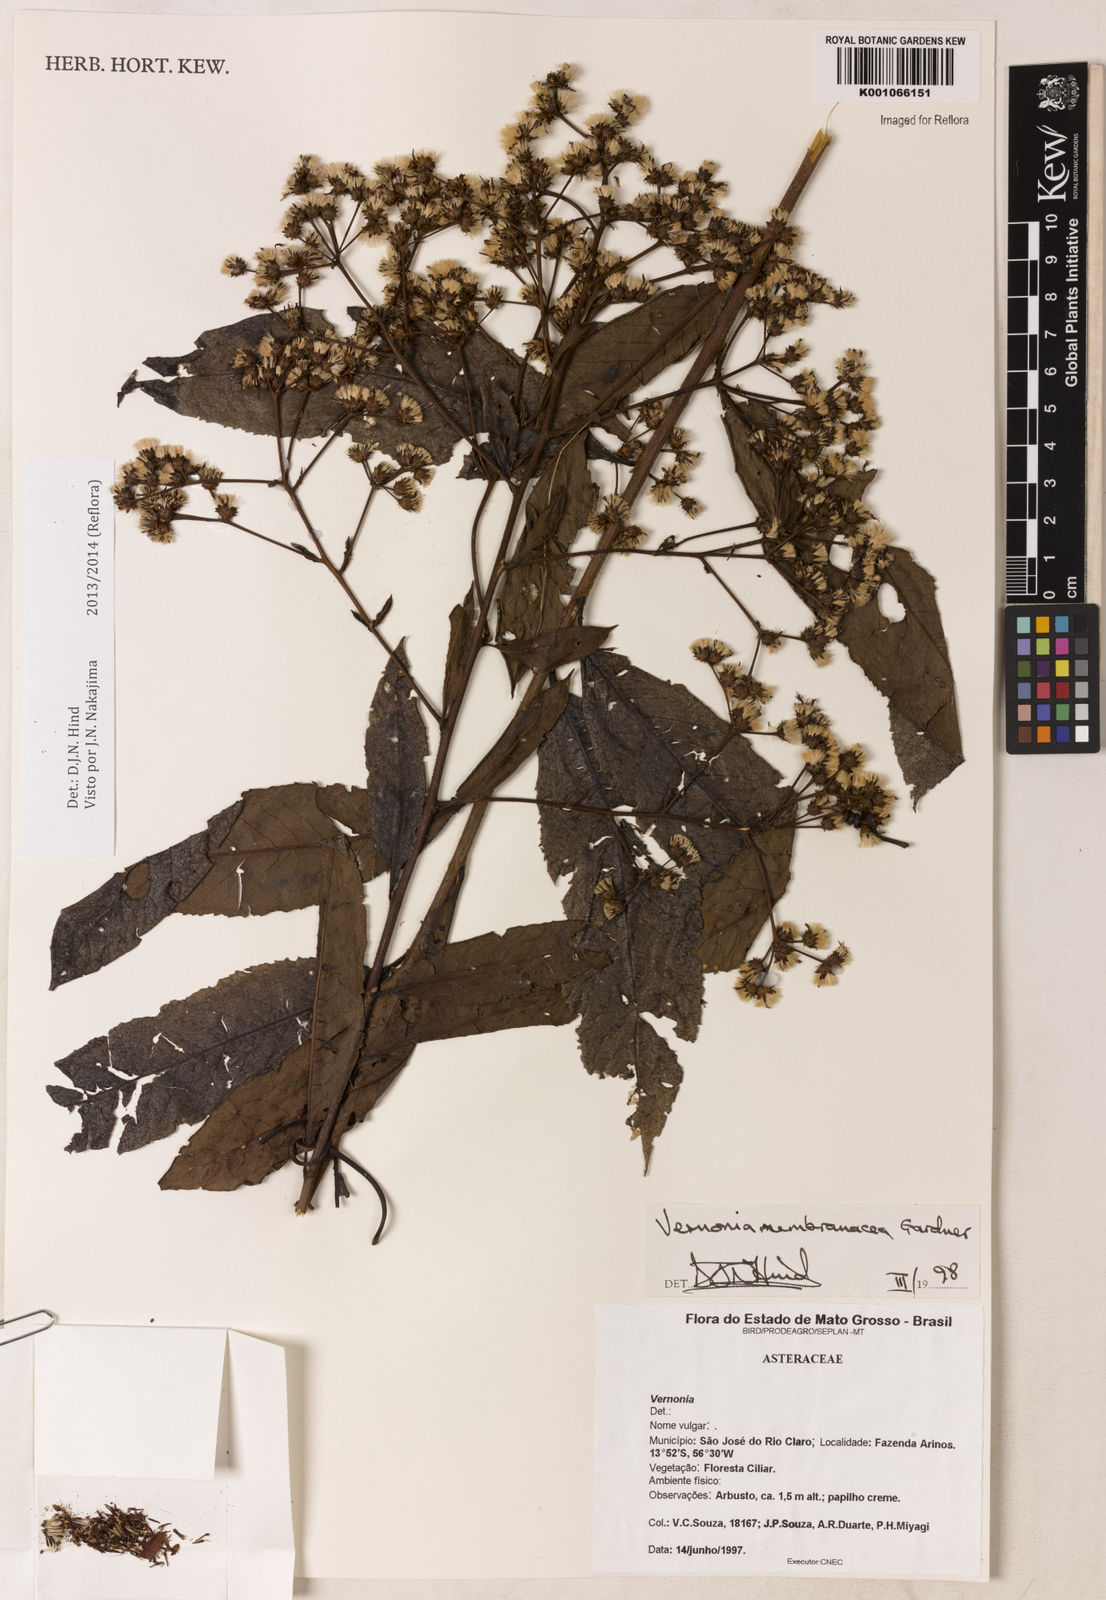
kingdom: Plantae
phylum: Tracheophyta
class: Magnoliopsida
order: Asterales
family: Asteraceae
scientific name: Asteraceae
